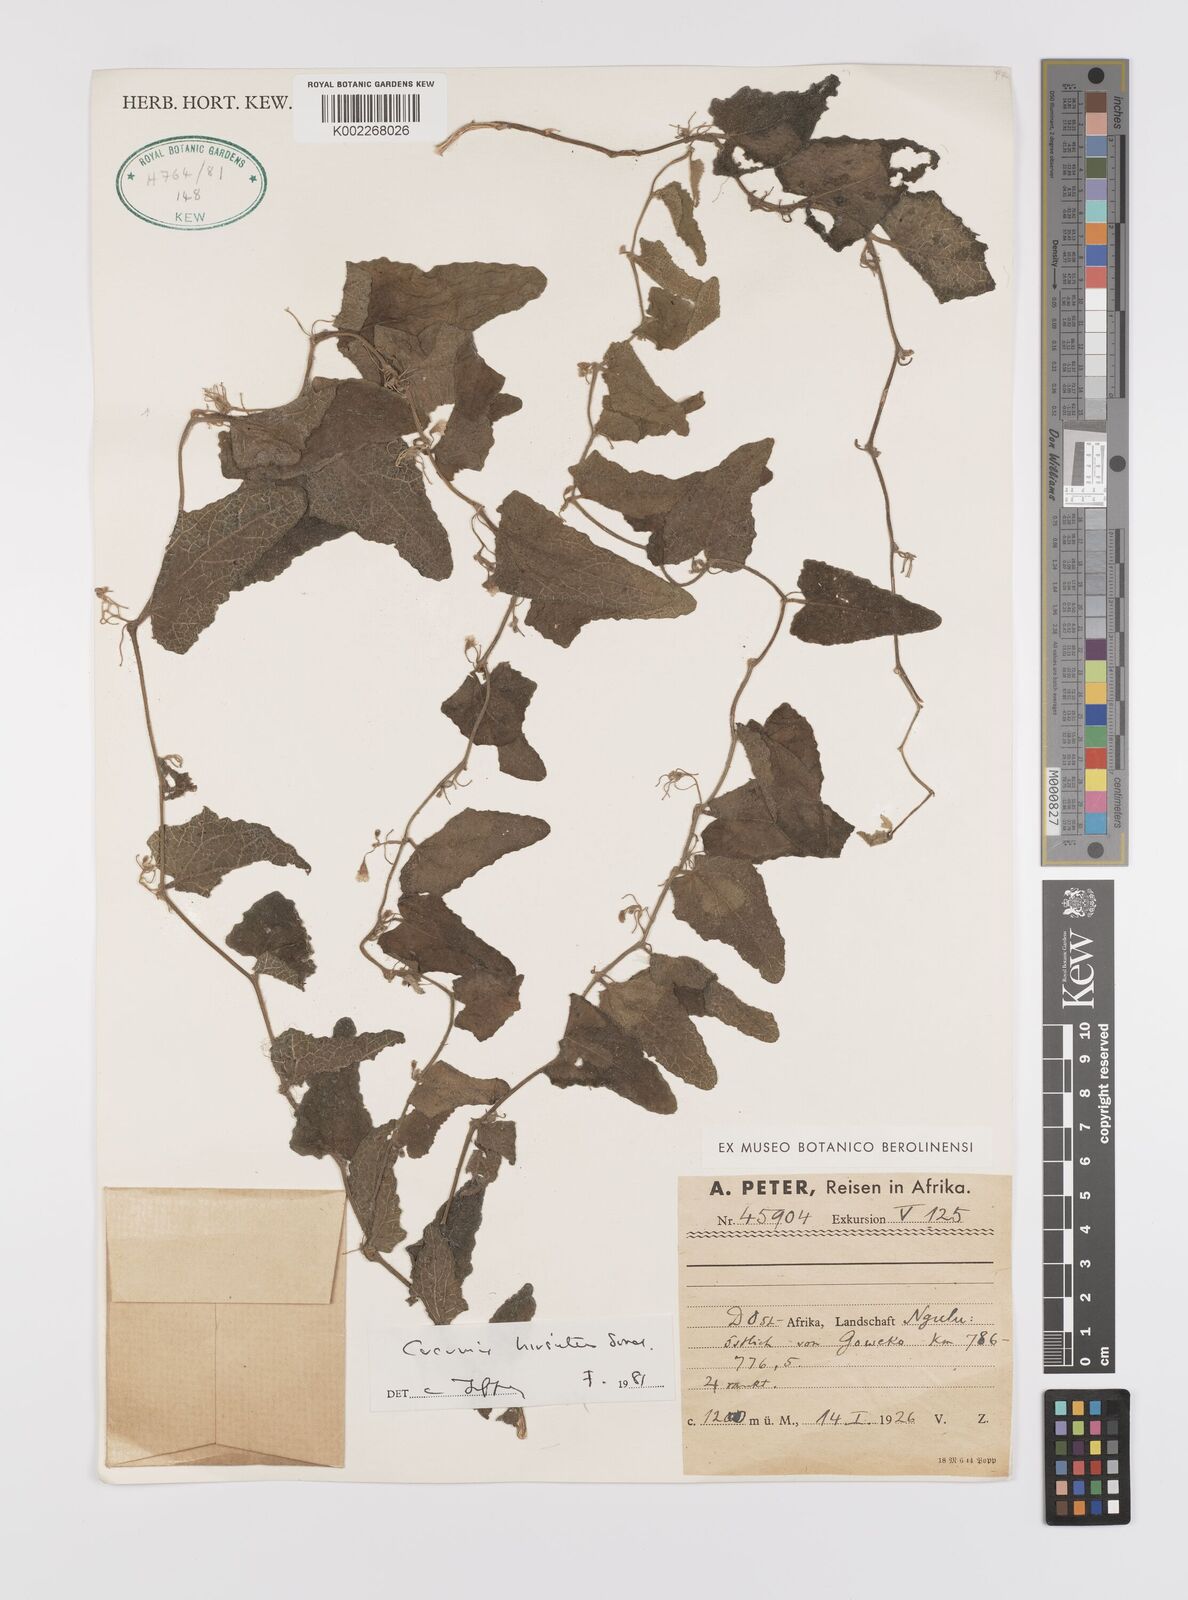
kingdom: Plantae
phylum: Tracheophyta
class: Magnoliopsida
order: Cucurbitales
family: Cucurbitaceae
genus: Cucumis
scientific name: Cucumis hirsutus
